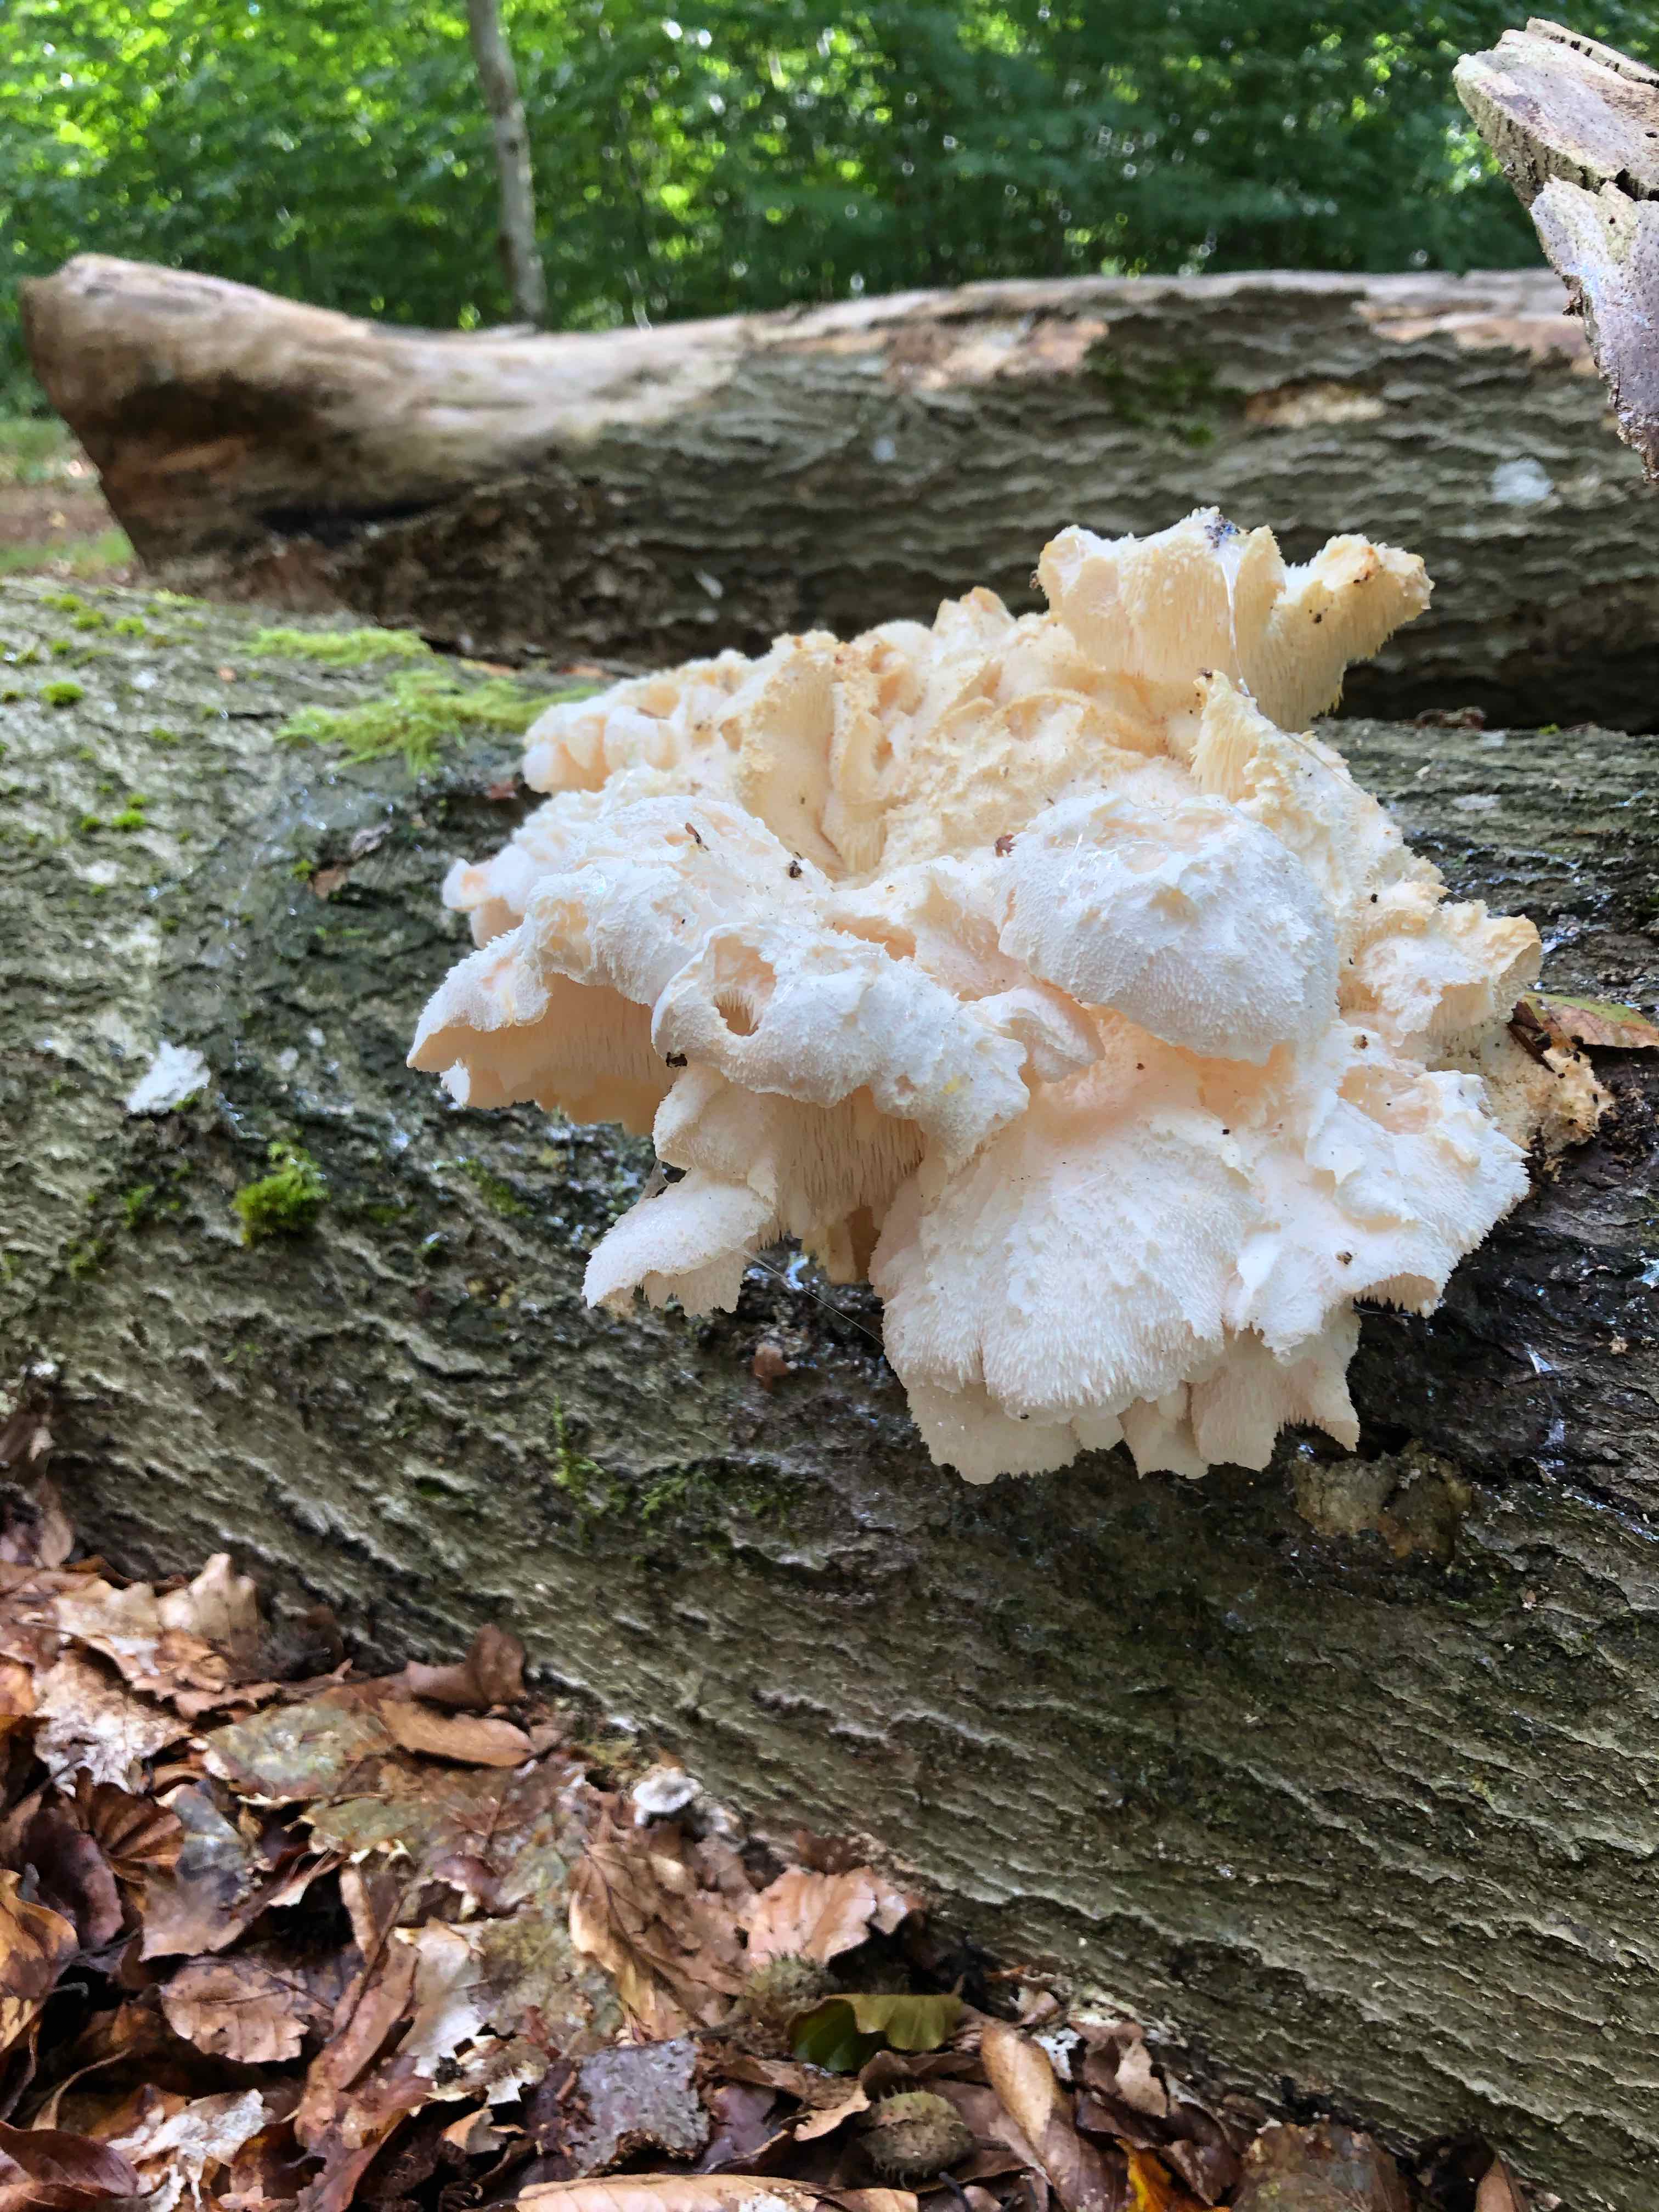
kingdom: Fungi
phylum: Basidiomycota
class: Agaricomycetes
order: Russulales
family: Hericiaceae
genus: Hericium
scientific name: Hericium cirrhatum
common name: børstepigsvamp
